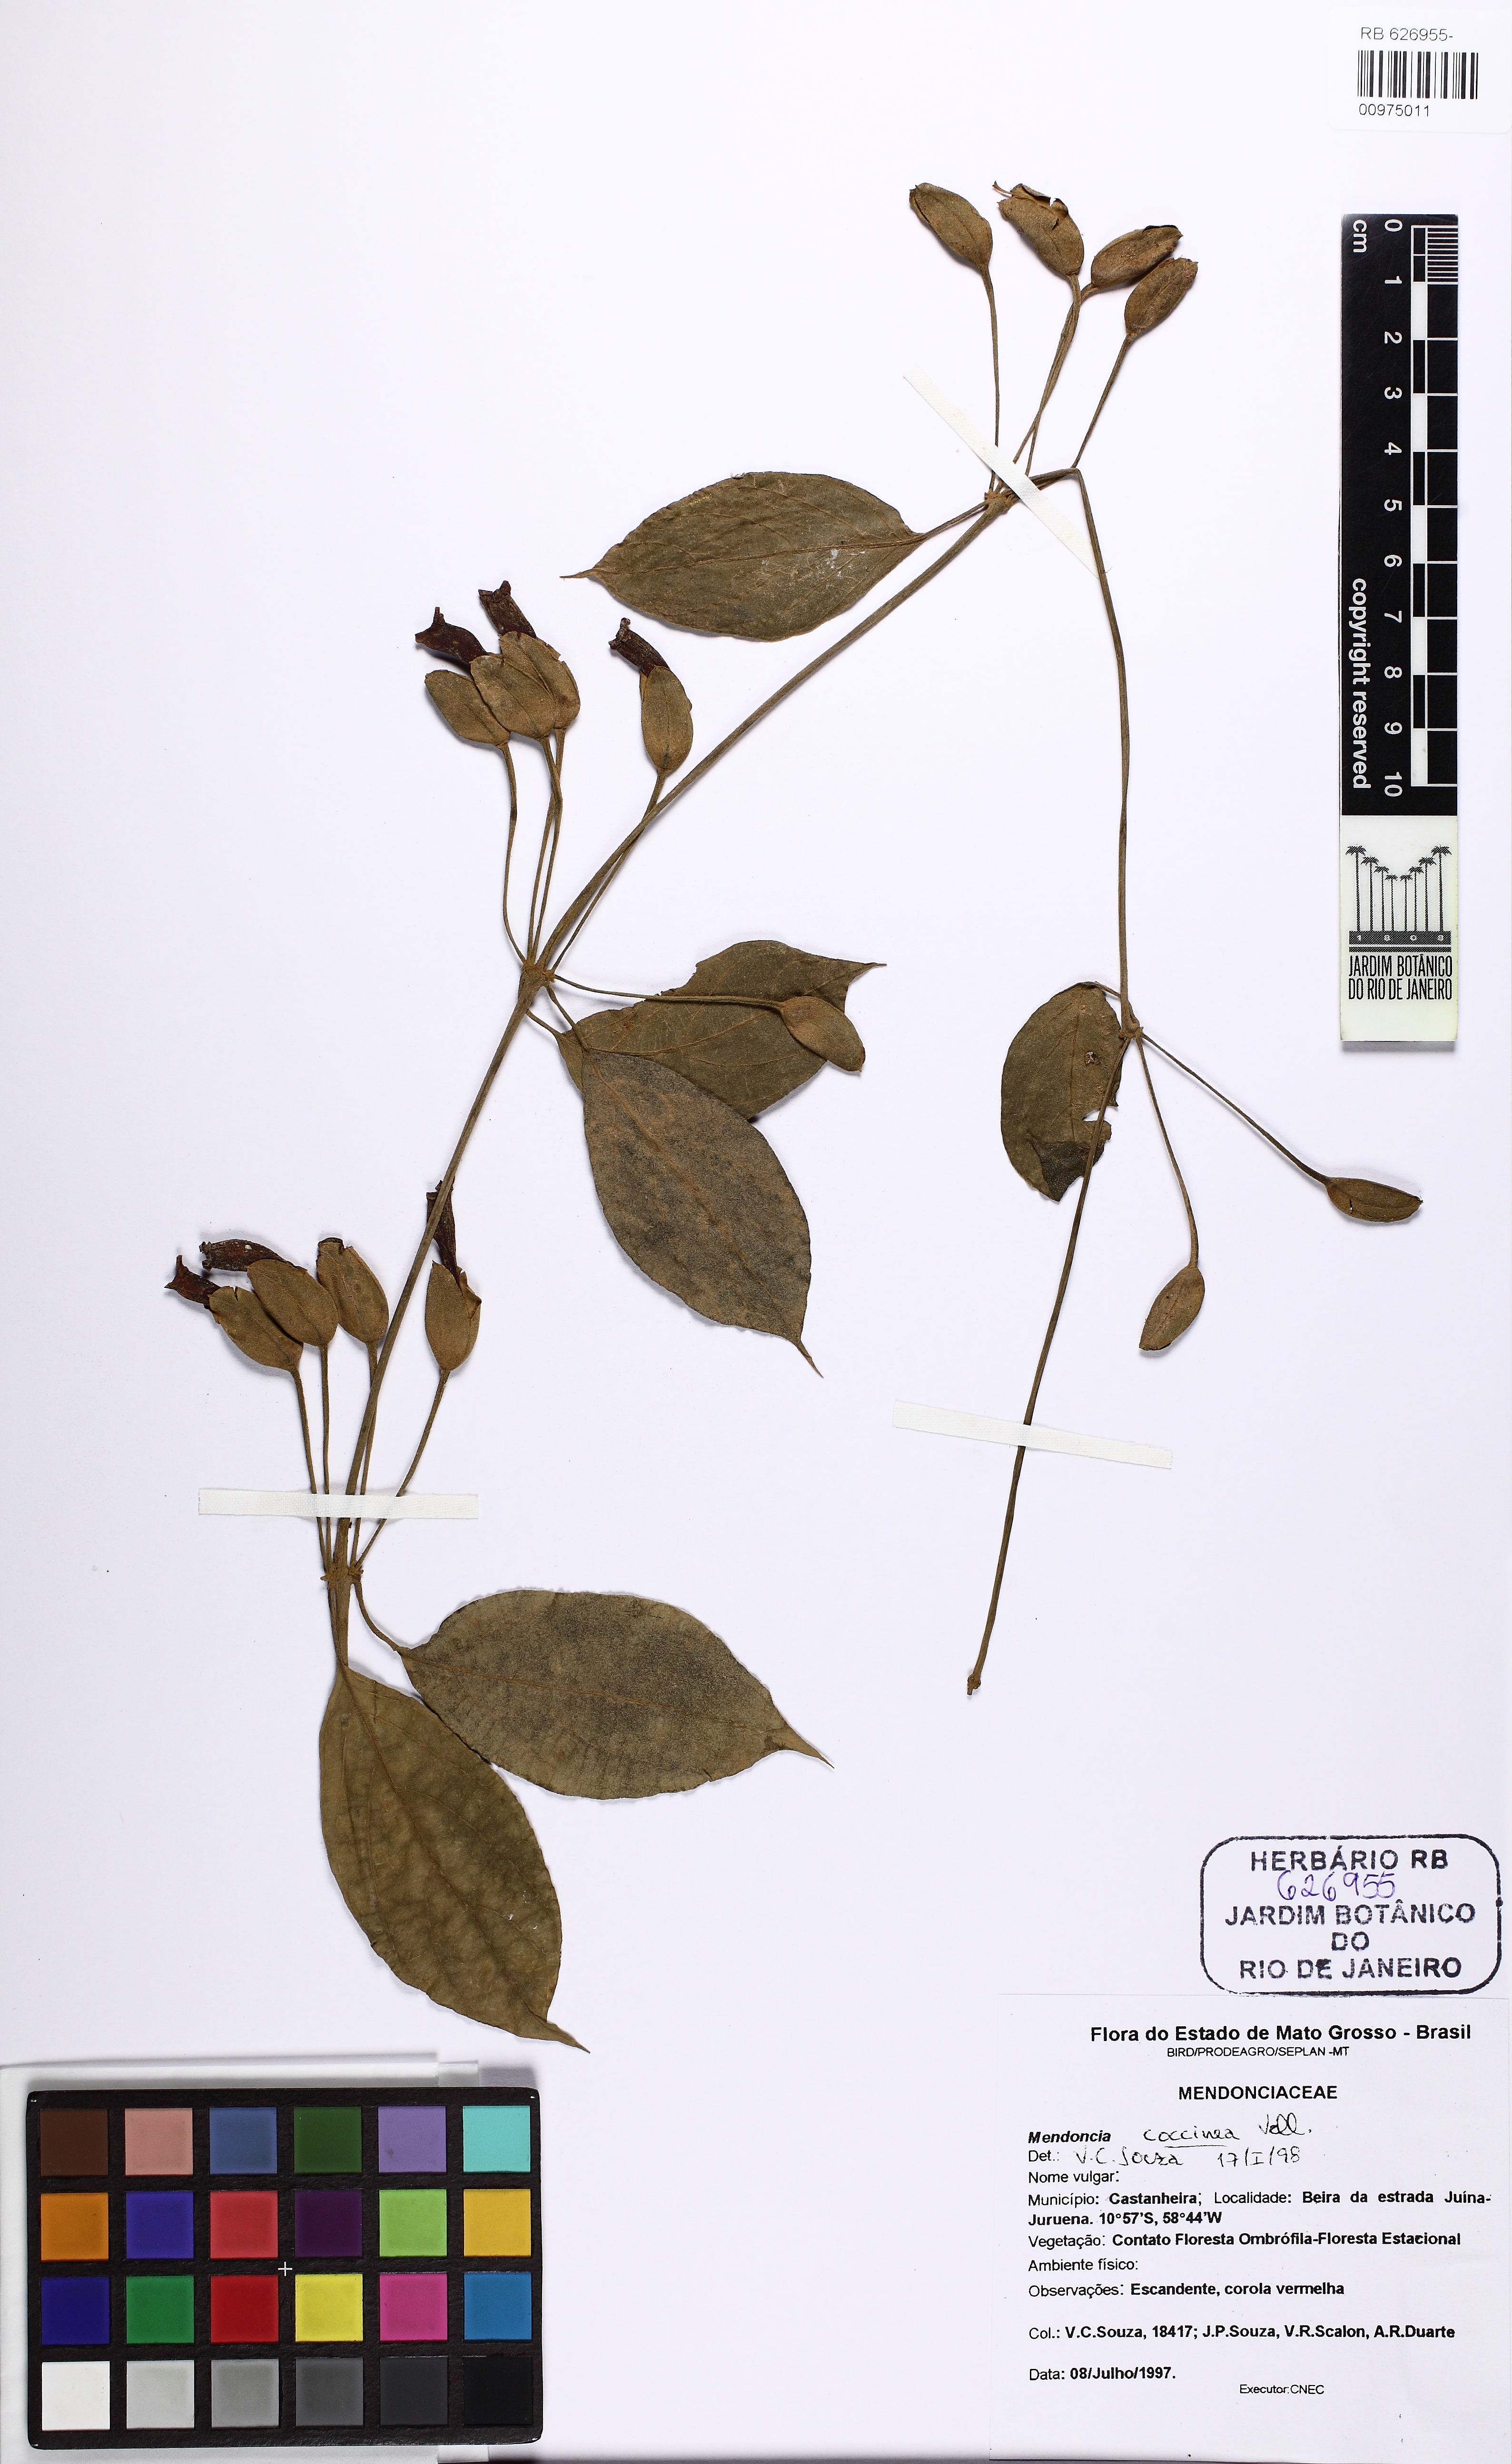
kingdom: Plantae
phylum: Tracheophyta
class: Magnoliopsida
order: Lamiales
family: Acanthaceae
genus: Mendoncia
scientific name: Mendoncia sprucei
